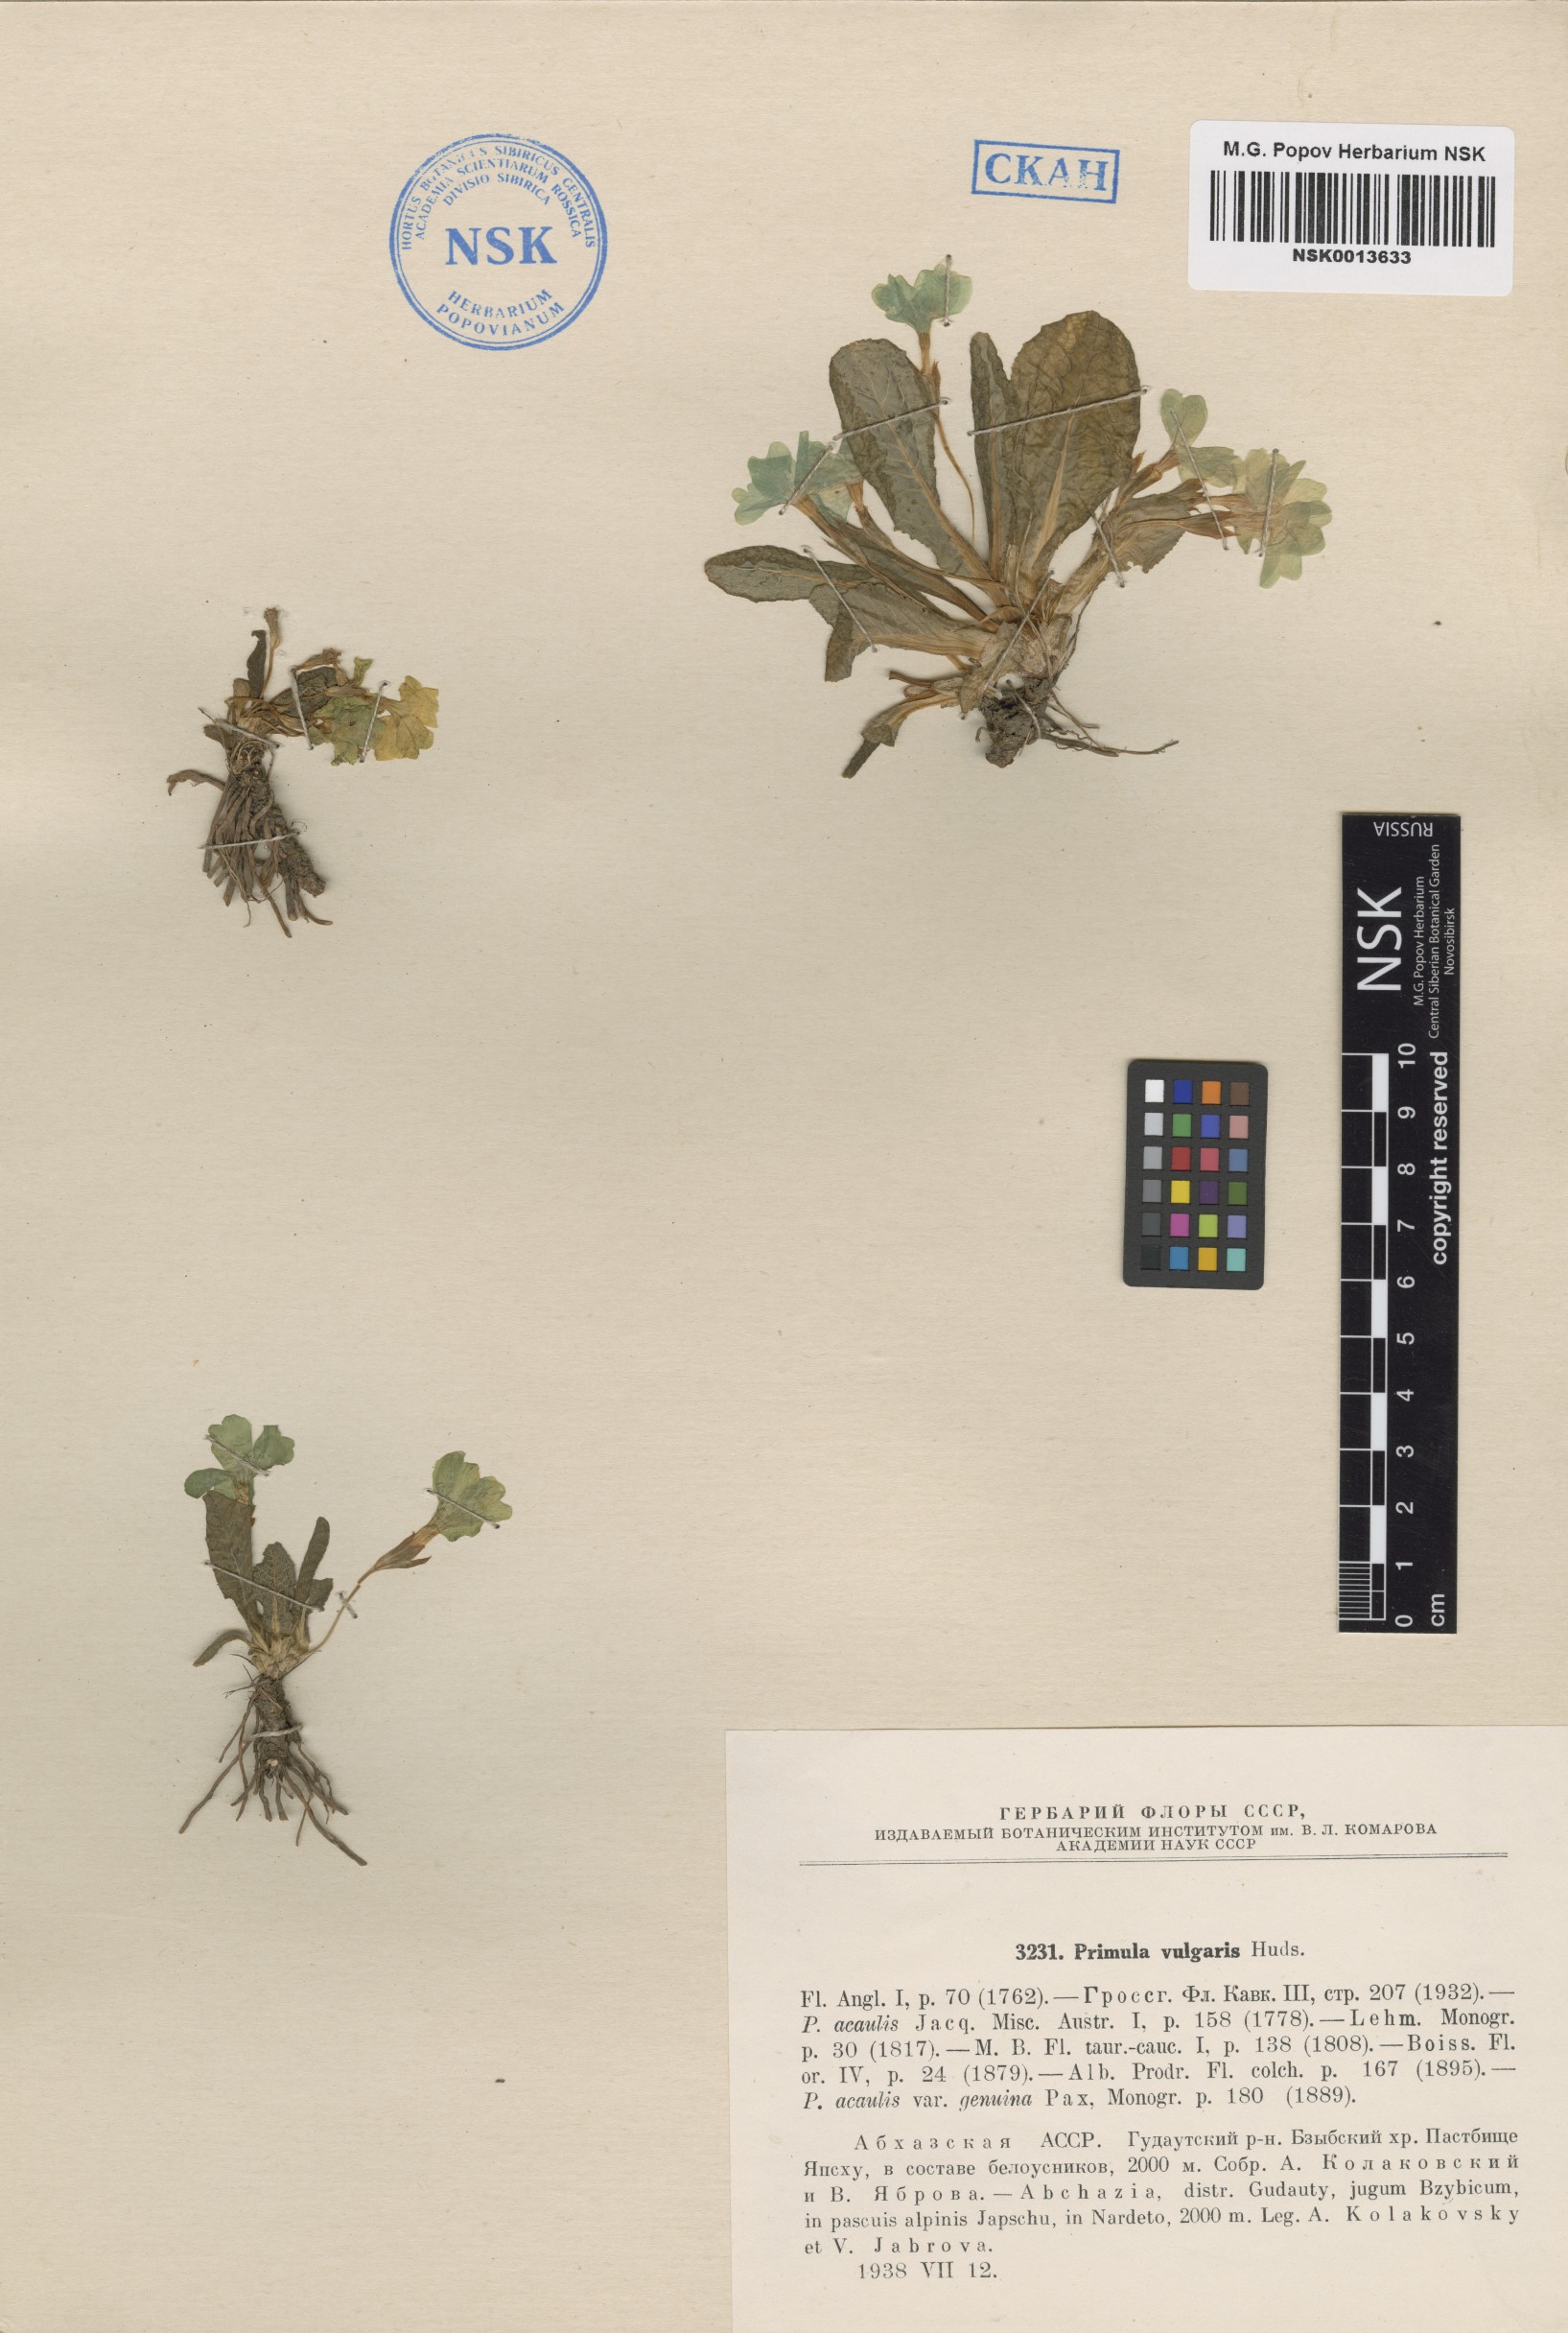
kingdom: Plantae
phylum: Tracheophyta
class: Magnoliopsida
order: Ericales
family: Primulaceae
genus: Primula
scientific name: Primula vulgaris
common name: Primrose
